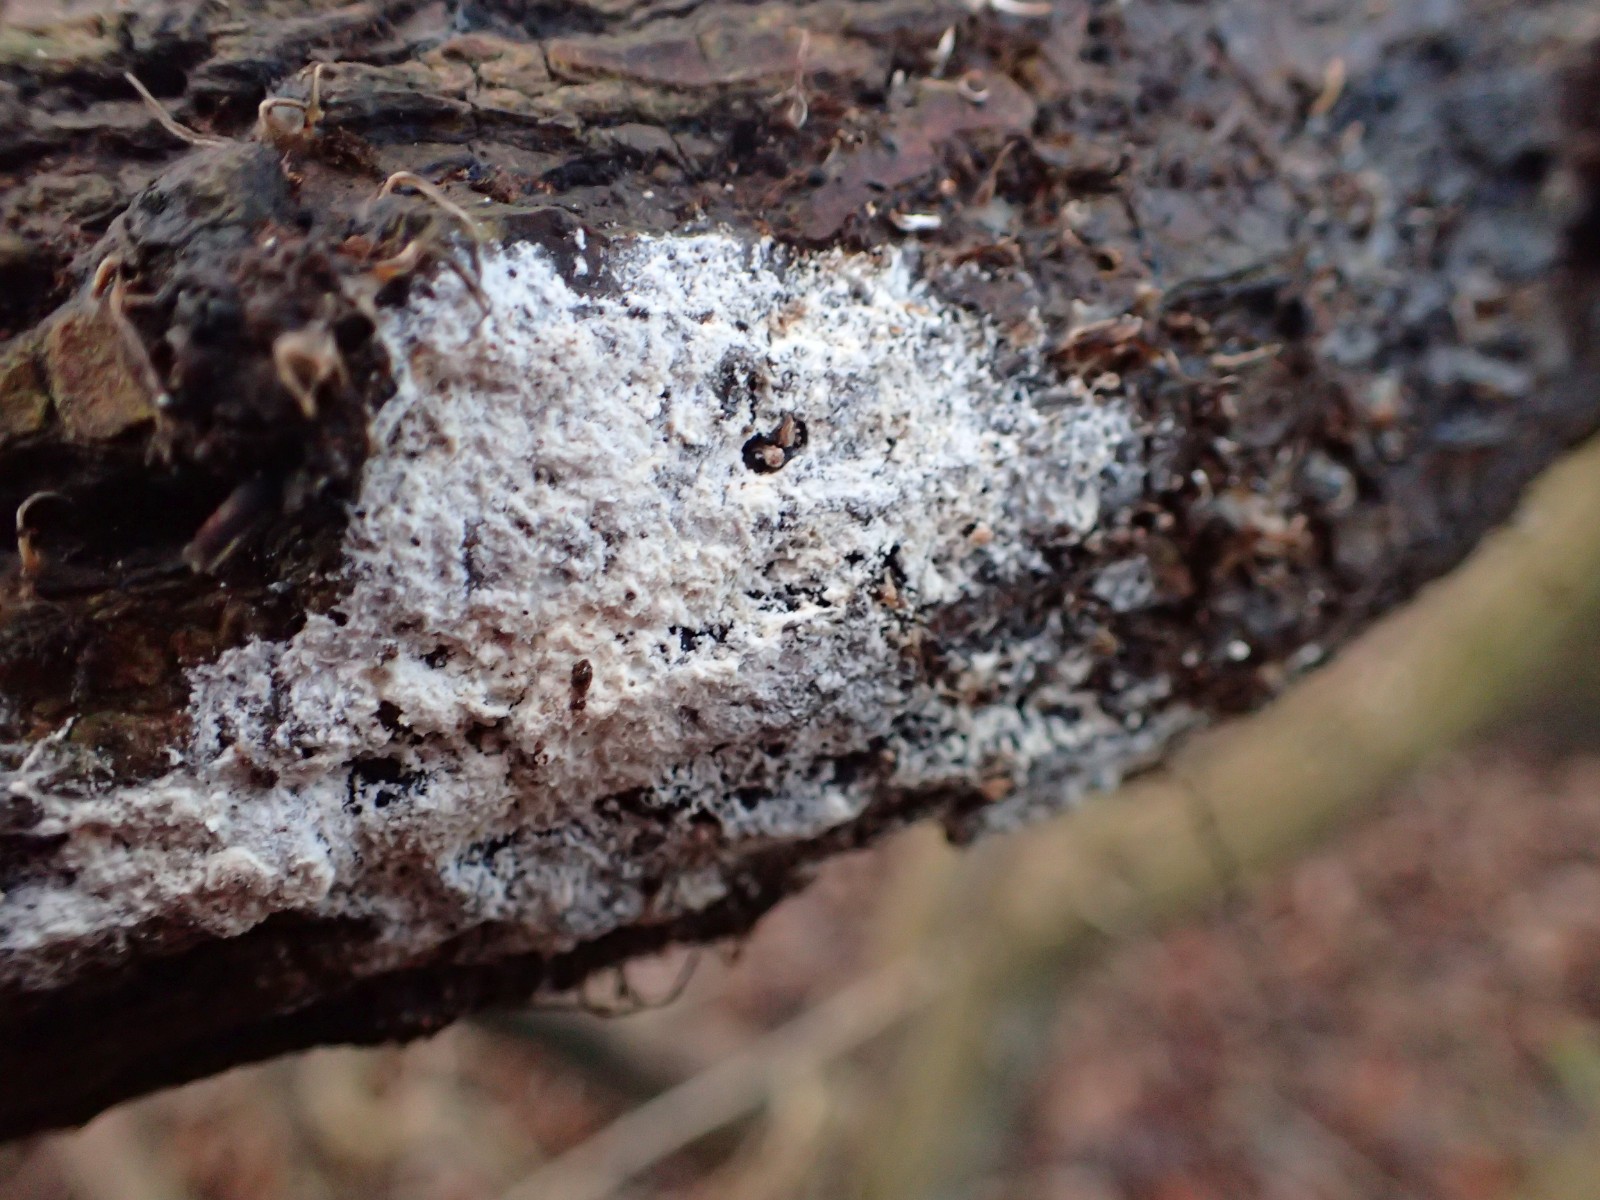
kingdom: Fungi
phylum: Basidiomycota
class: Agaricomycetes
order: Corticiales
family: Corticiaceae
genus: Lyomyces
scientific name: Lyomyces sambuci
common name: almindelig hyldehinde
